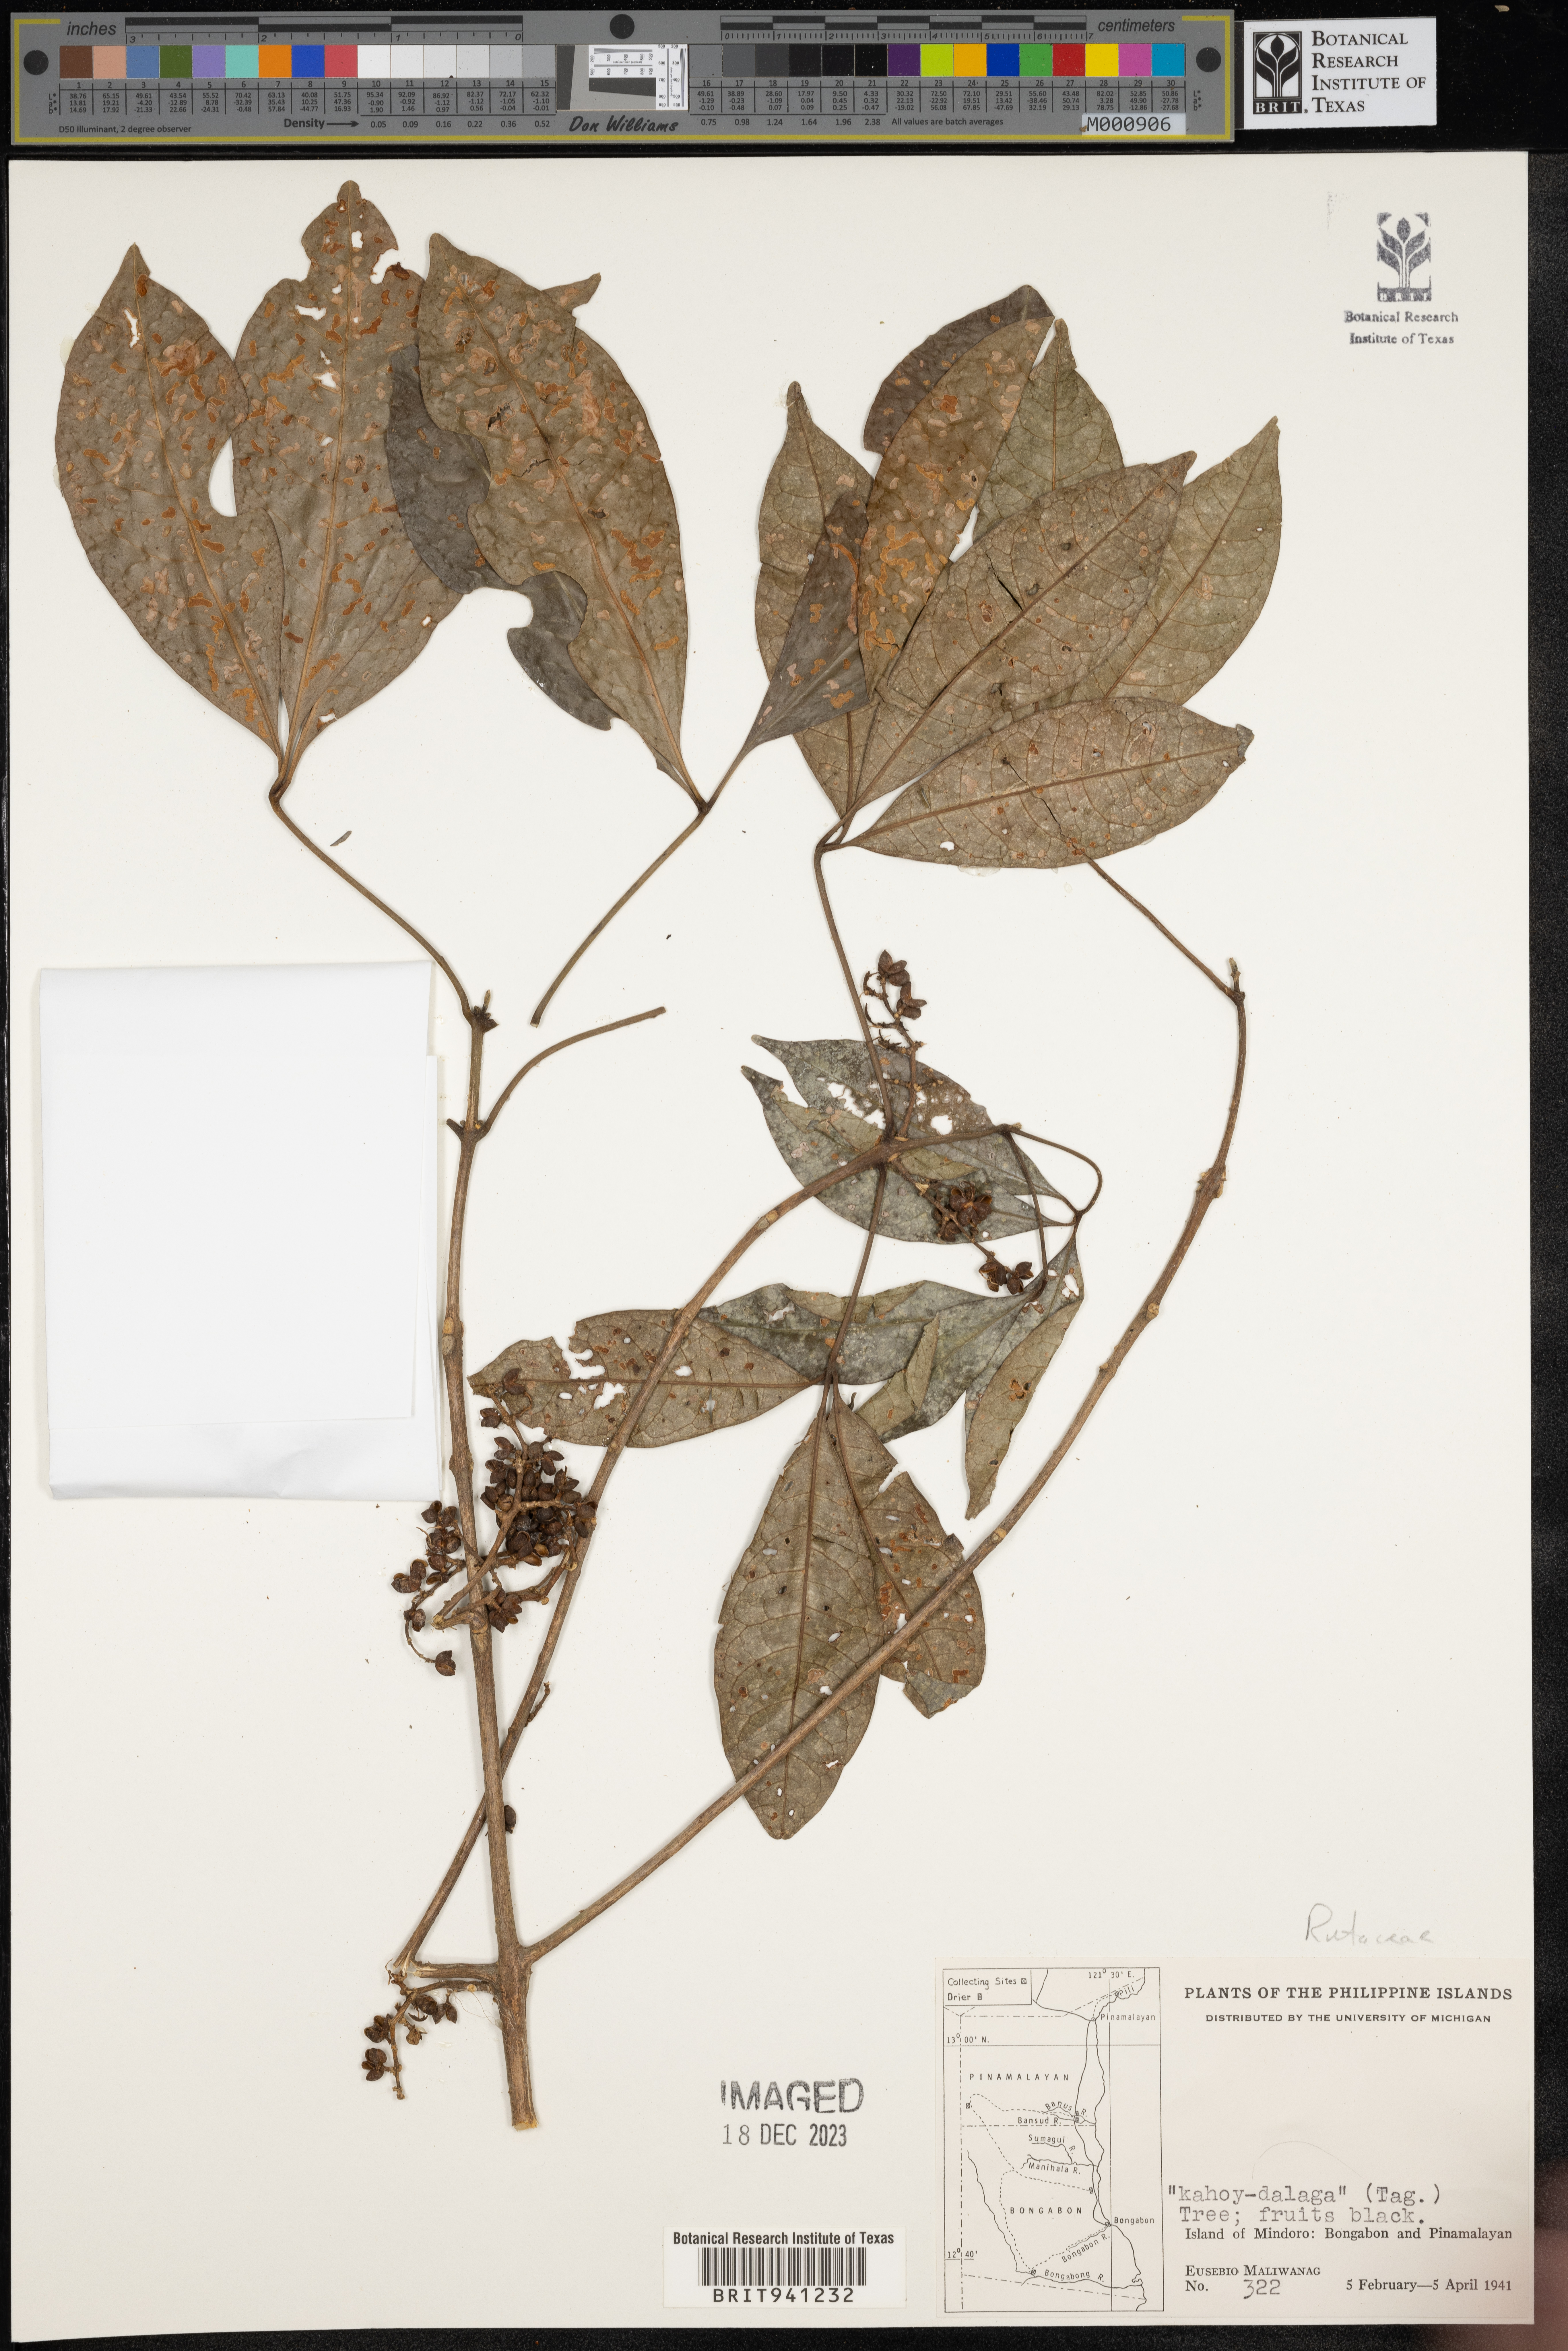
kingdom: Plantae
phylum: Tracheophyta
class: Magnoliopsida
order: Sapindales
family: Rutaceae
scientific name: Rutaceae
